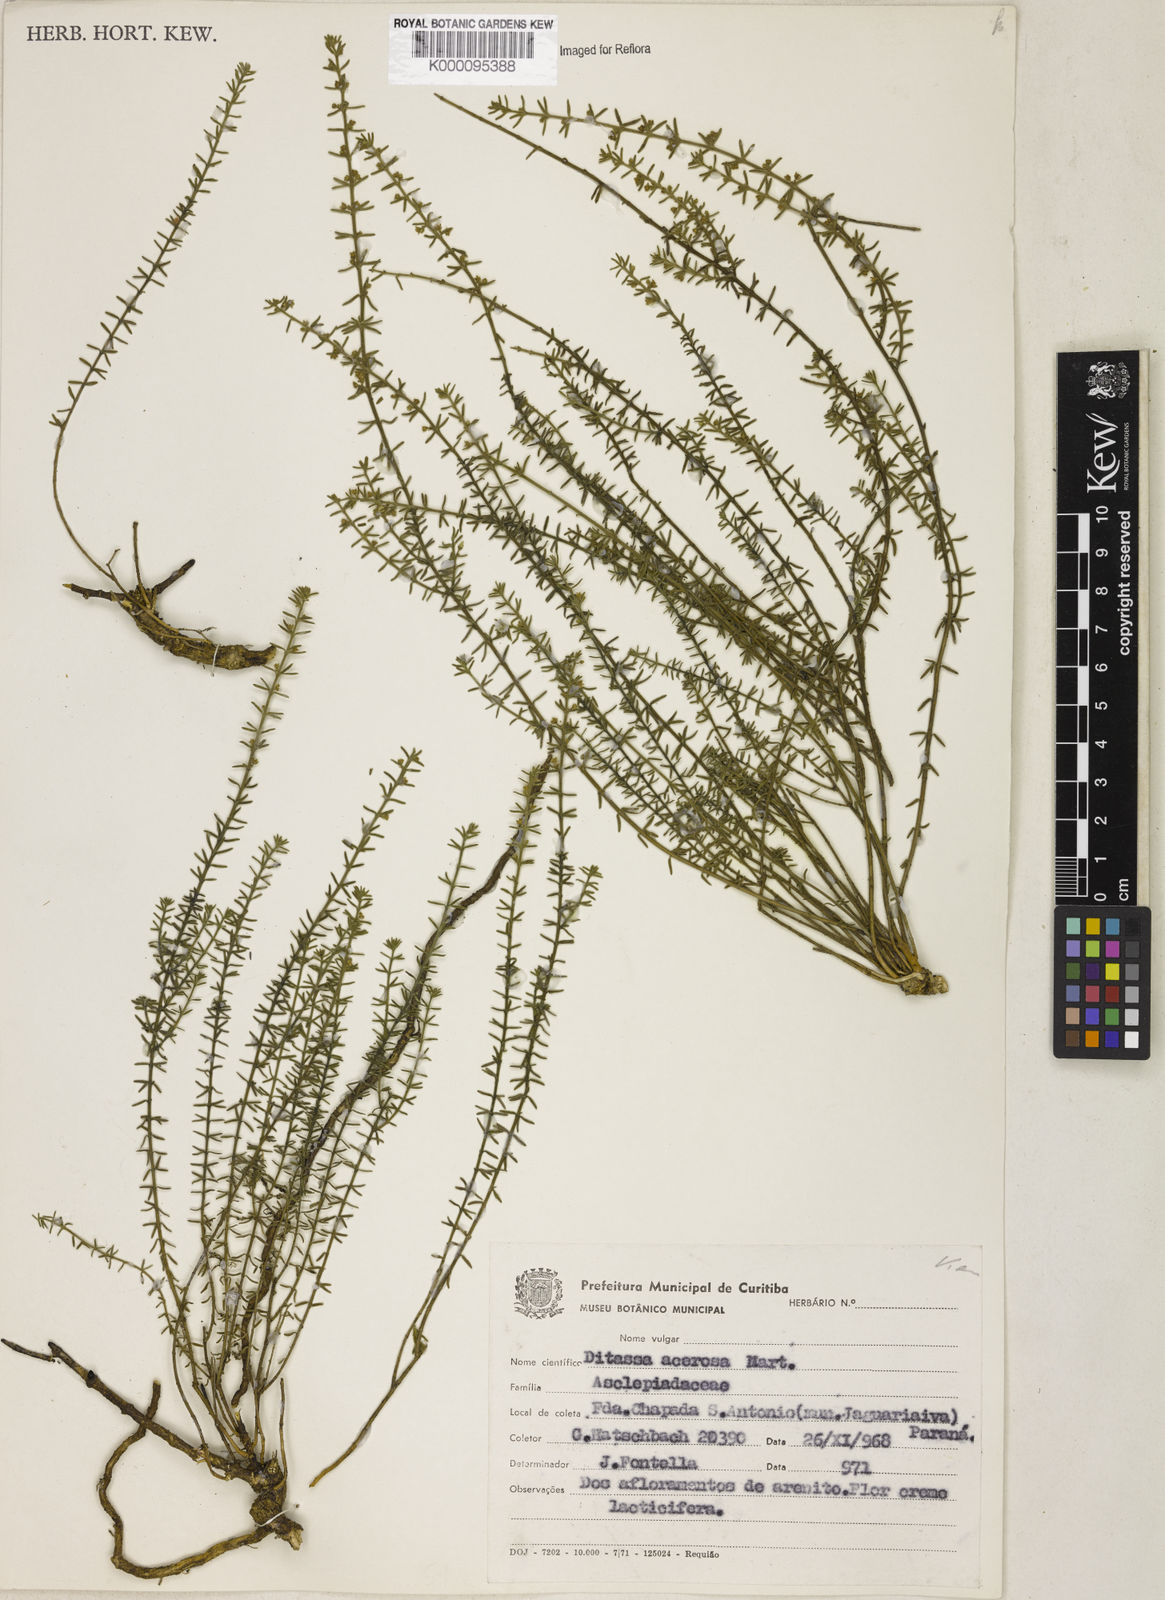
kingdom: Plantae
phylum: Tracheophyta
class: Magnoliopsida
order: Gentianales
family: Apocynaceae
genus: Minaria
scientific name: Minaria acerosa
